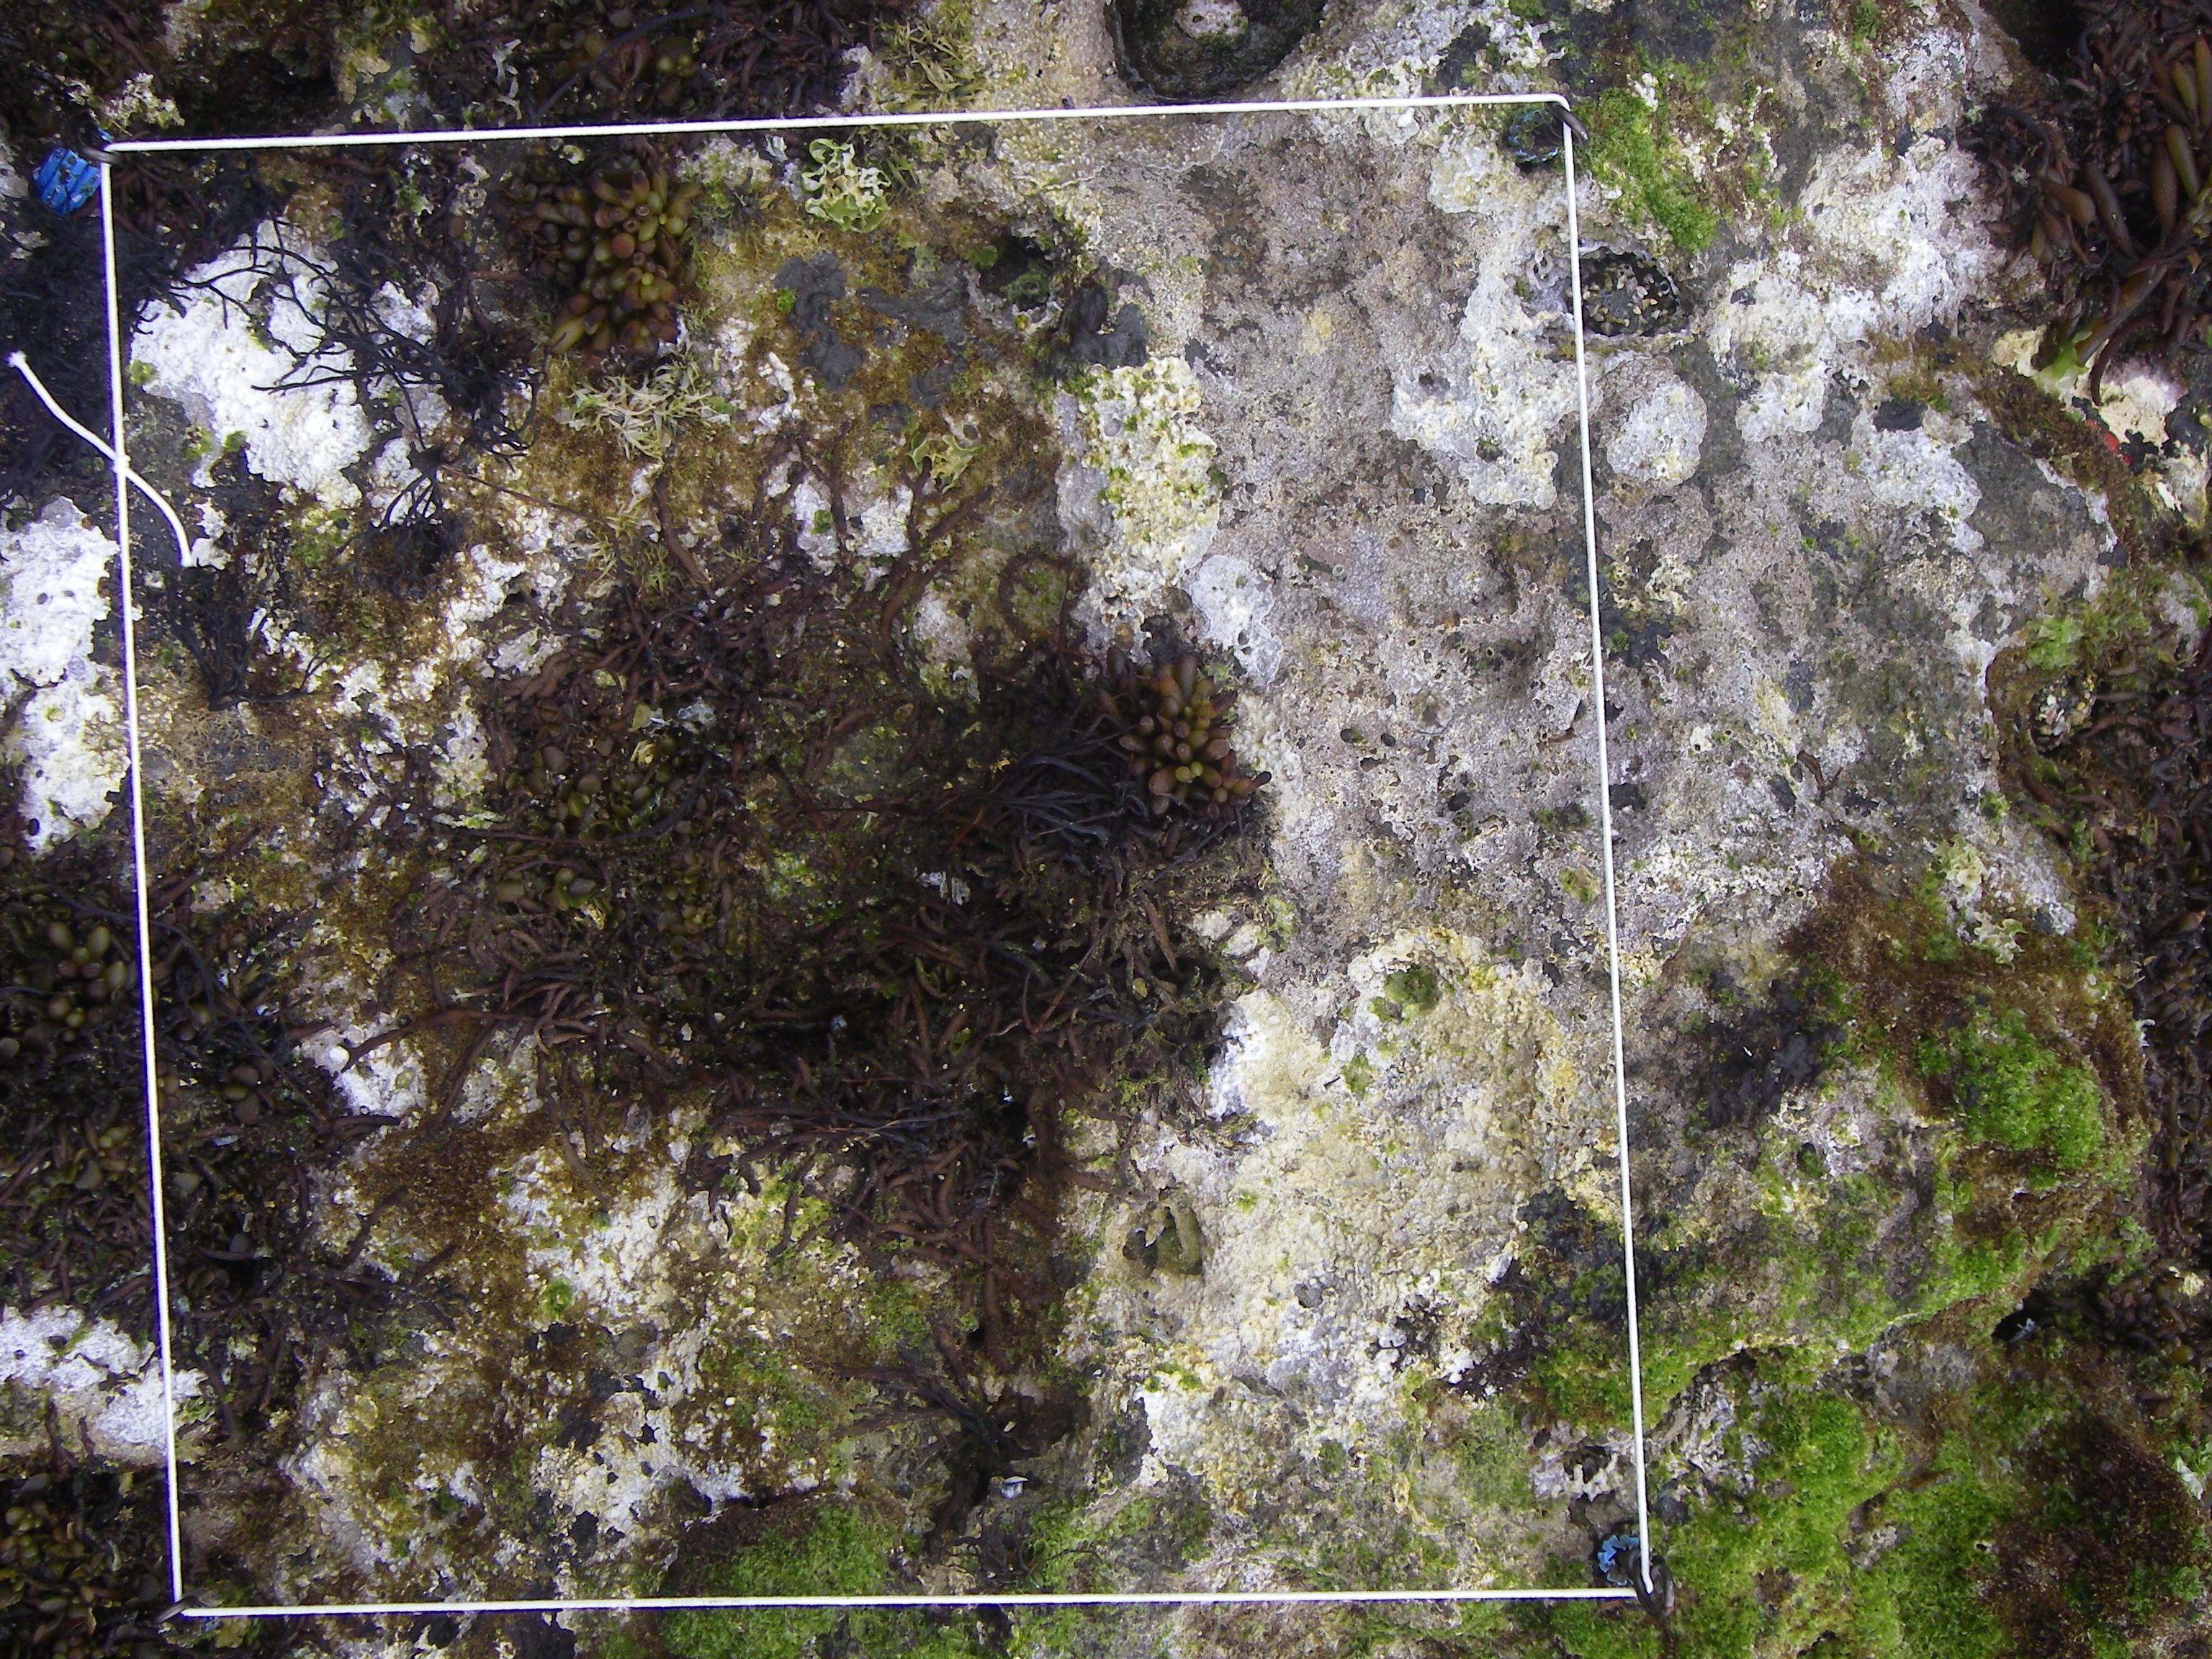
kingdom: Animalia
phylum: Arthropoda
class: Maxillopoda
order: Sessilia
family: Chthamalidae
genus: Chthamalus
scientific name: Chthamalus challengeri
